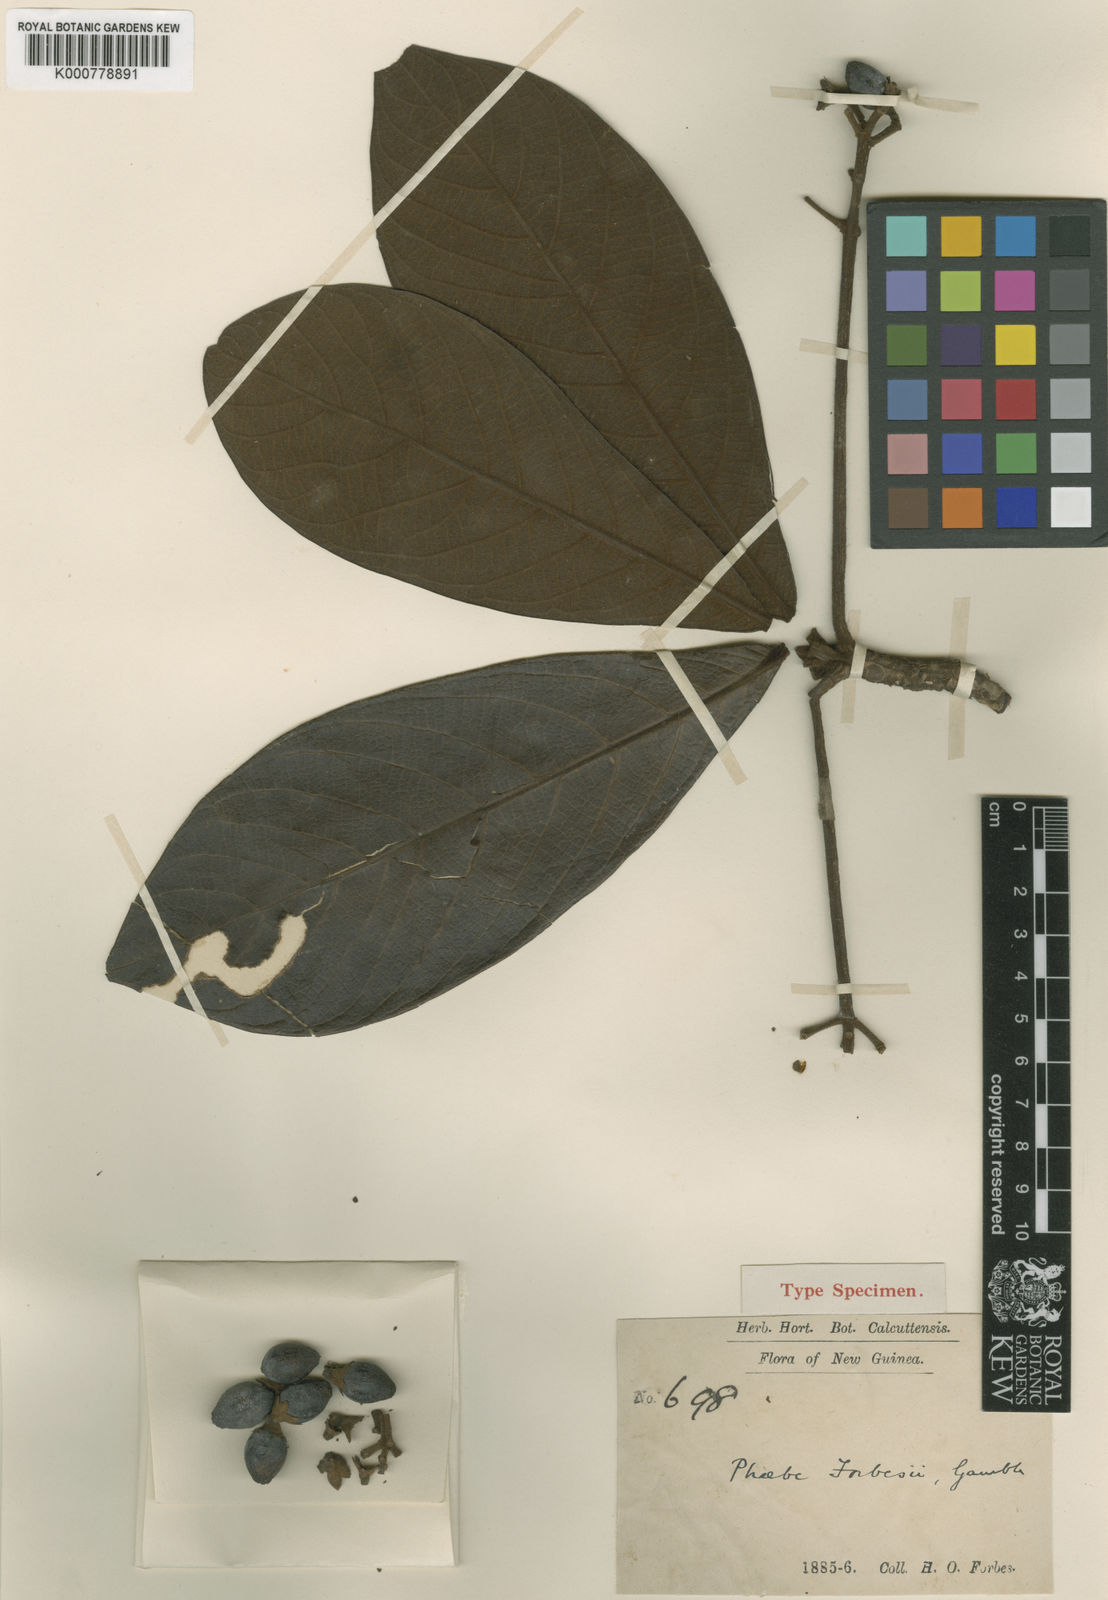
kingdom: Plantae
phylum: Tracheophyta
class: Magnoliopsida
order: Laurales
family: Lauraceae
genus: Phoebe
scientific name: Phoebe forbesii
